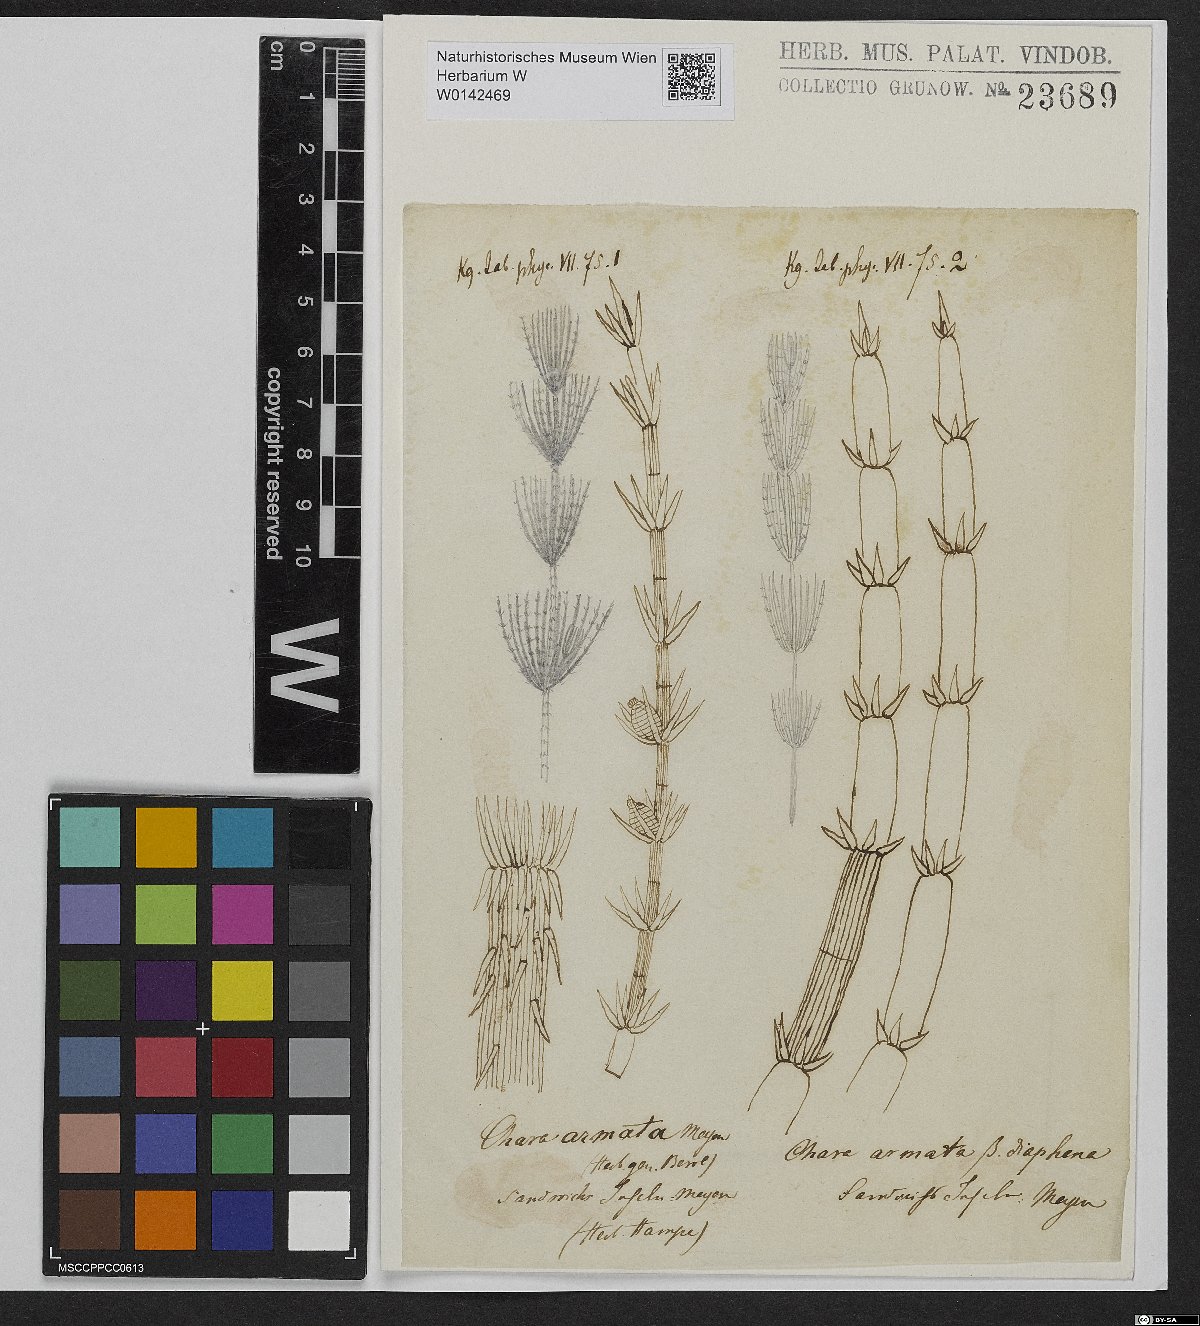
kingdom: Plantae
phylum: Charophyta
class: Charophyceae
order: Charales
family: Characeae
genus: Chara
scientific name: Chara zeylanica
